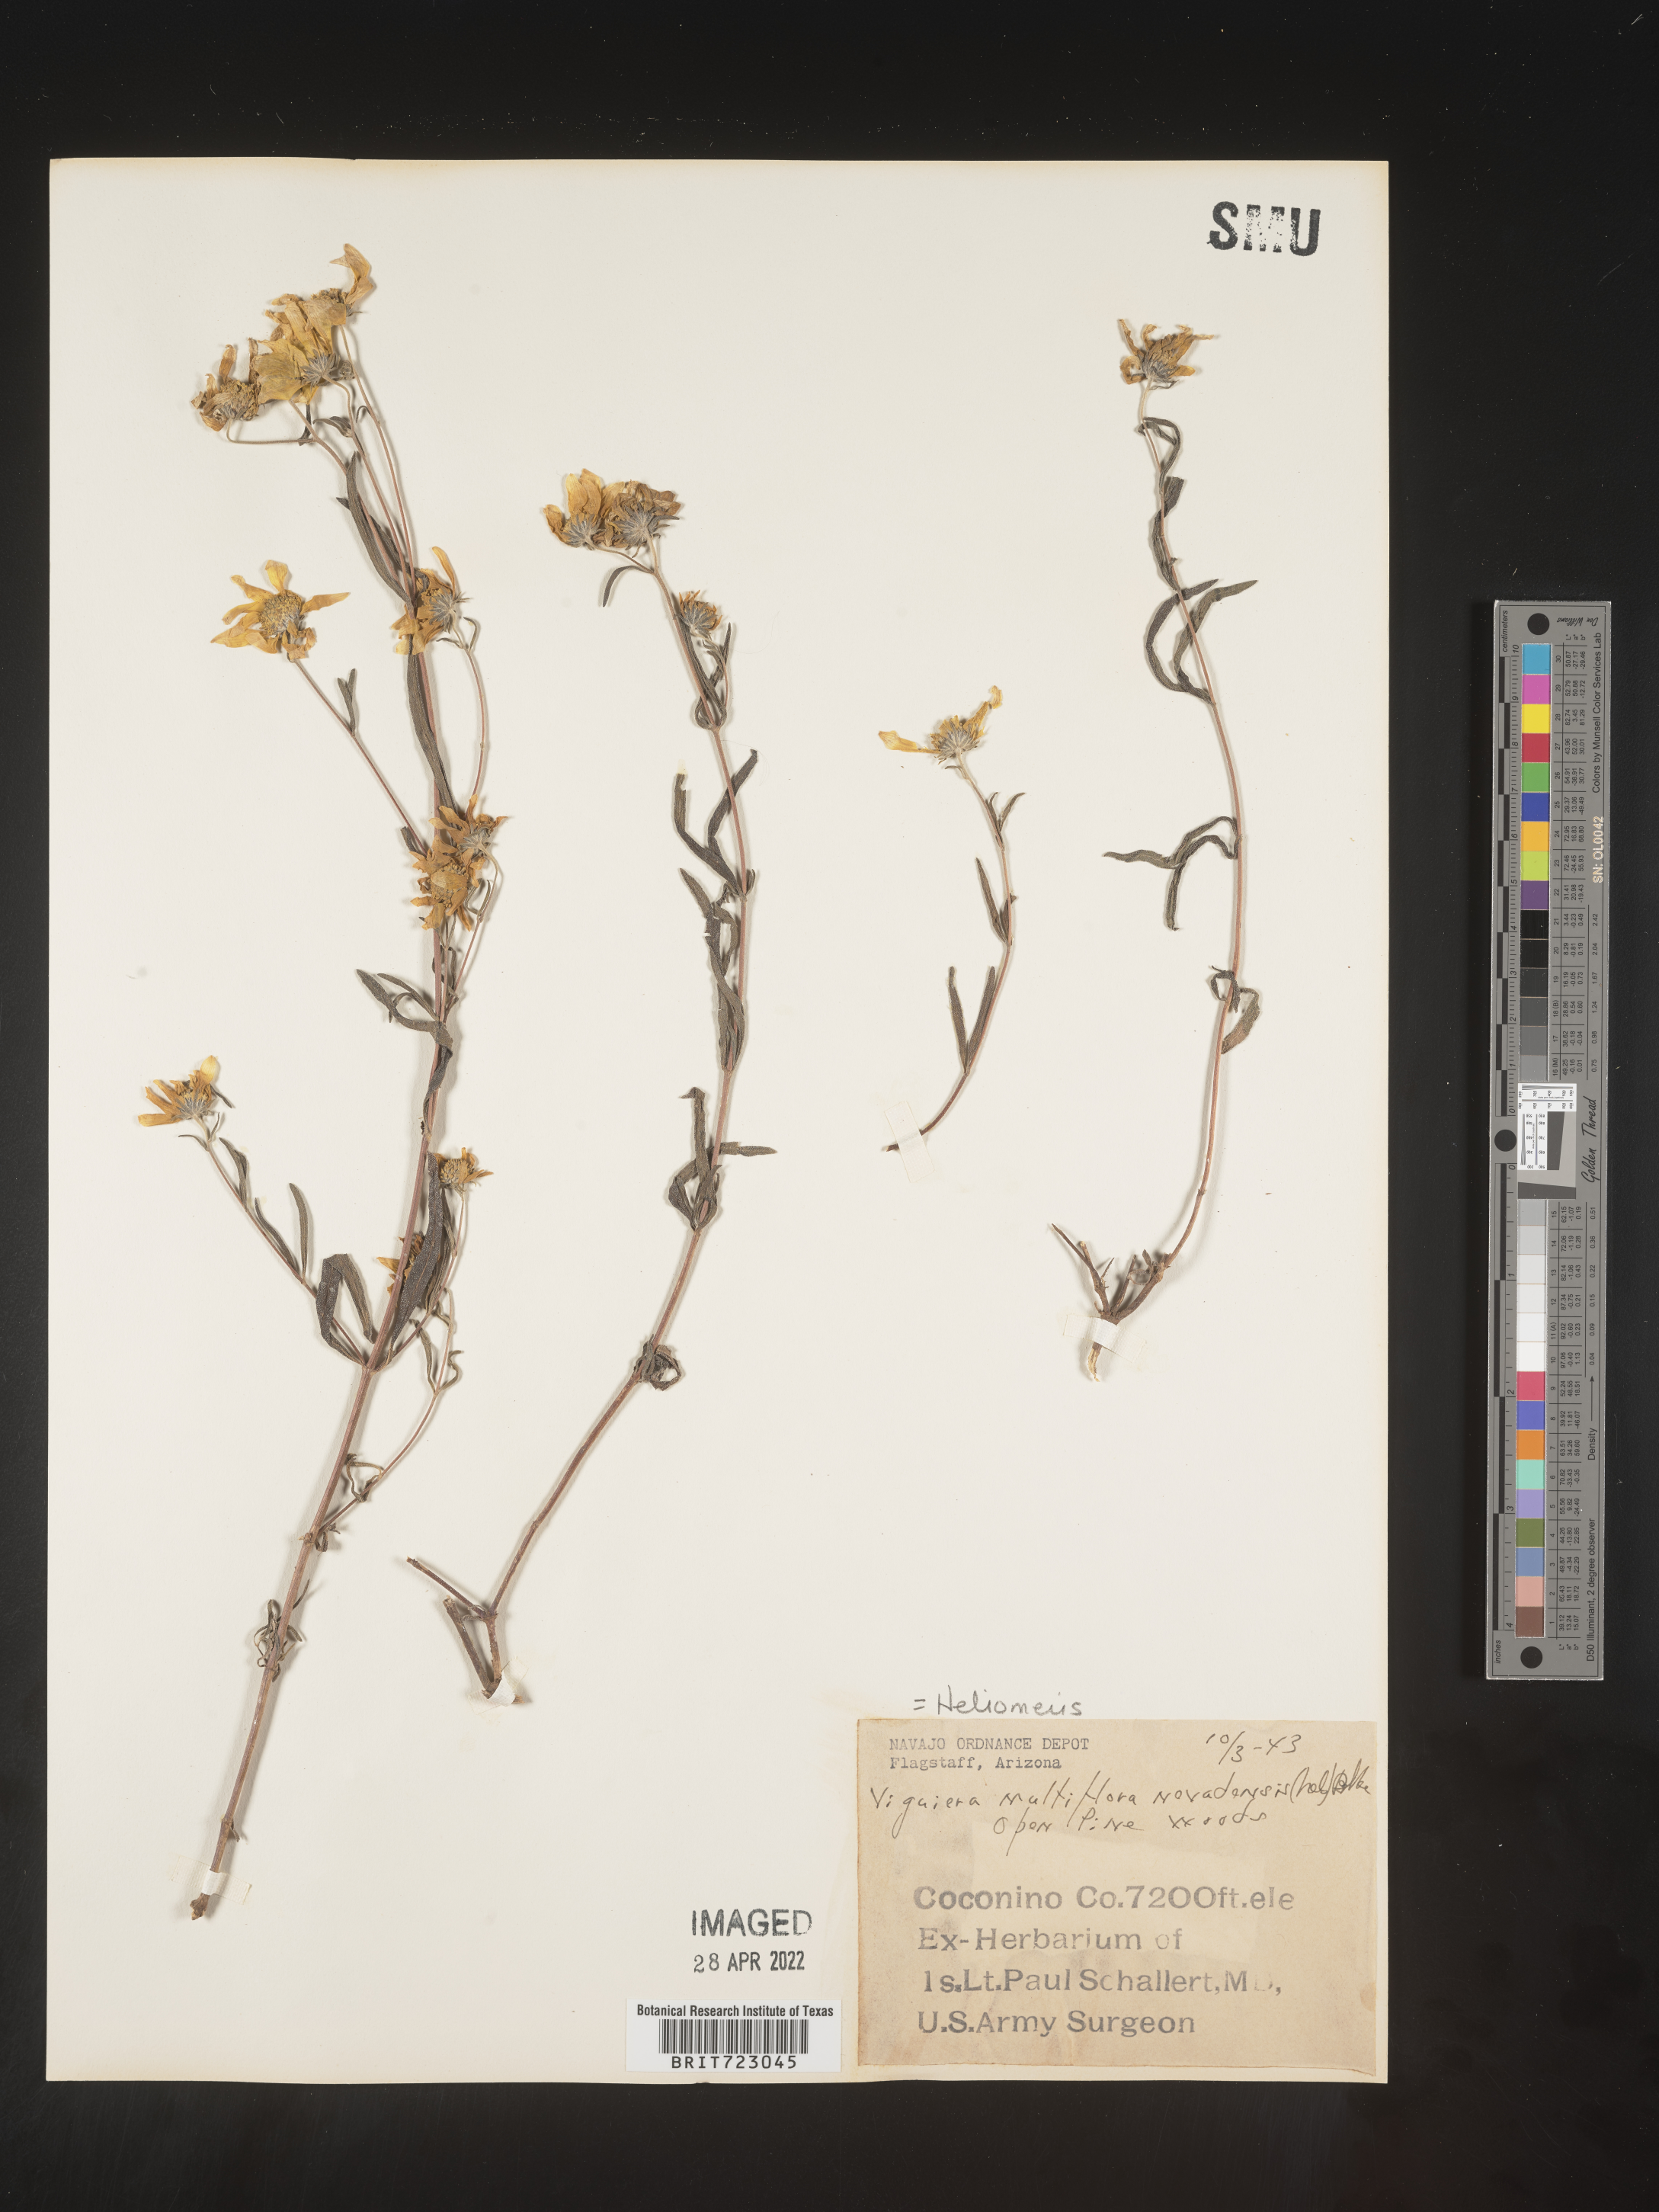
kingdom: Plantae
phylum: Tracheophyta
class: Magnoliopsida
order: Asterales
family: Asteraceae
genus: Heliomeris
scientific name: Heliomeris multiflora
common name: Showy goldeneye
